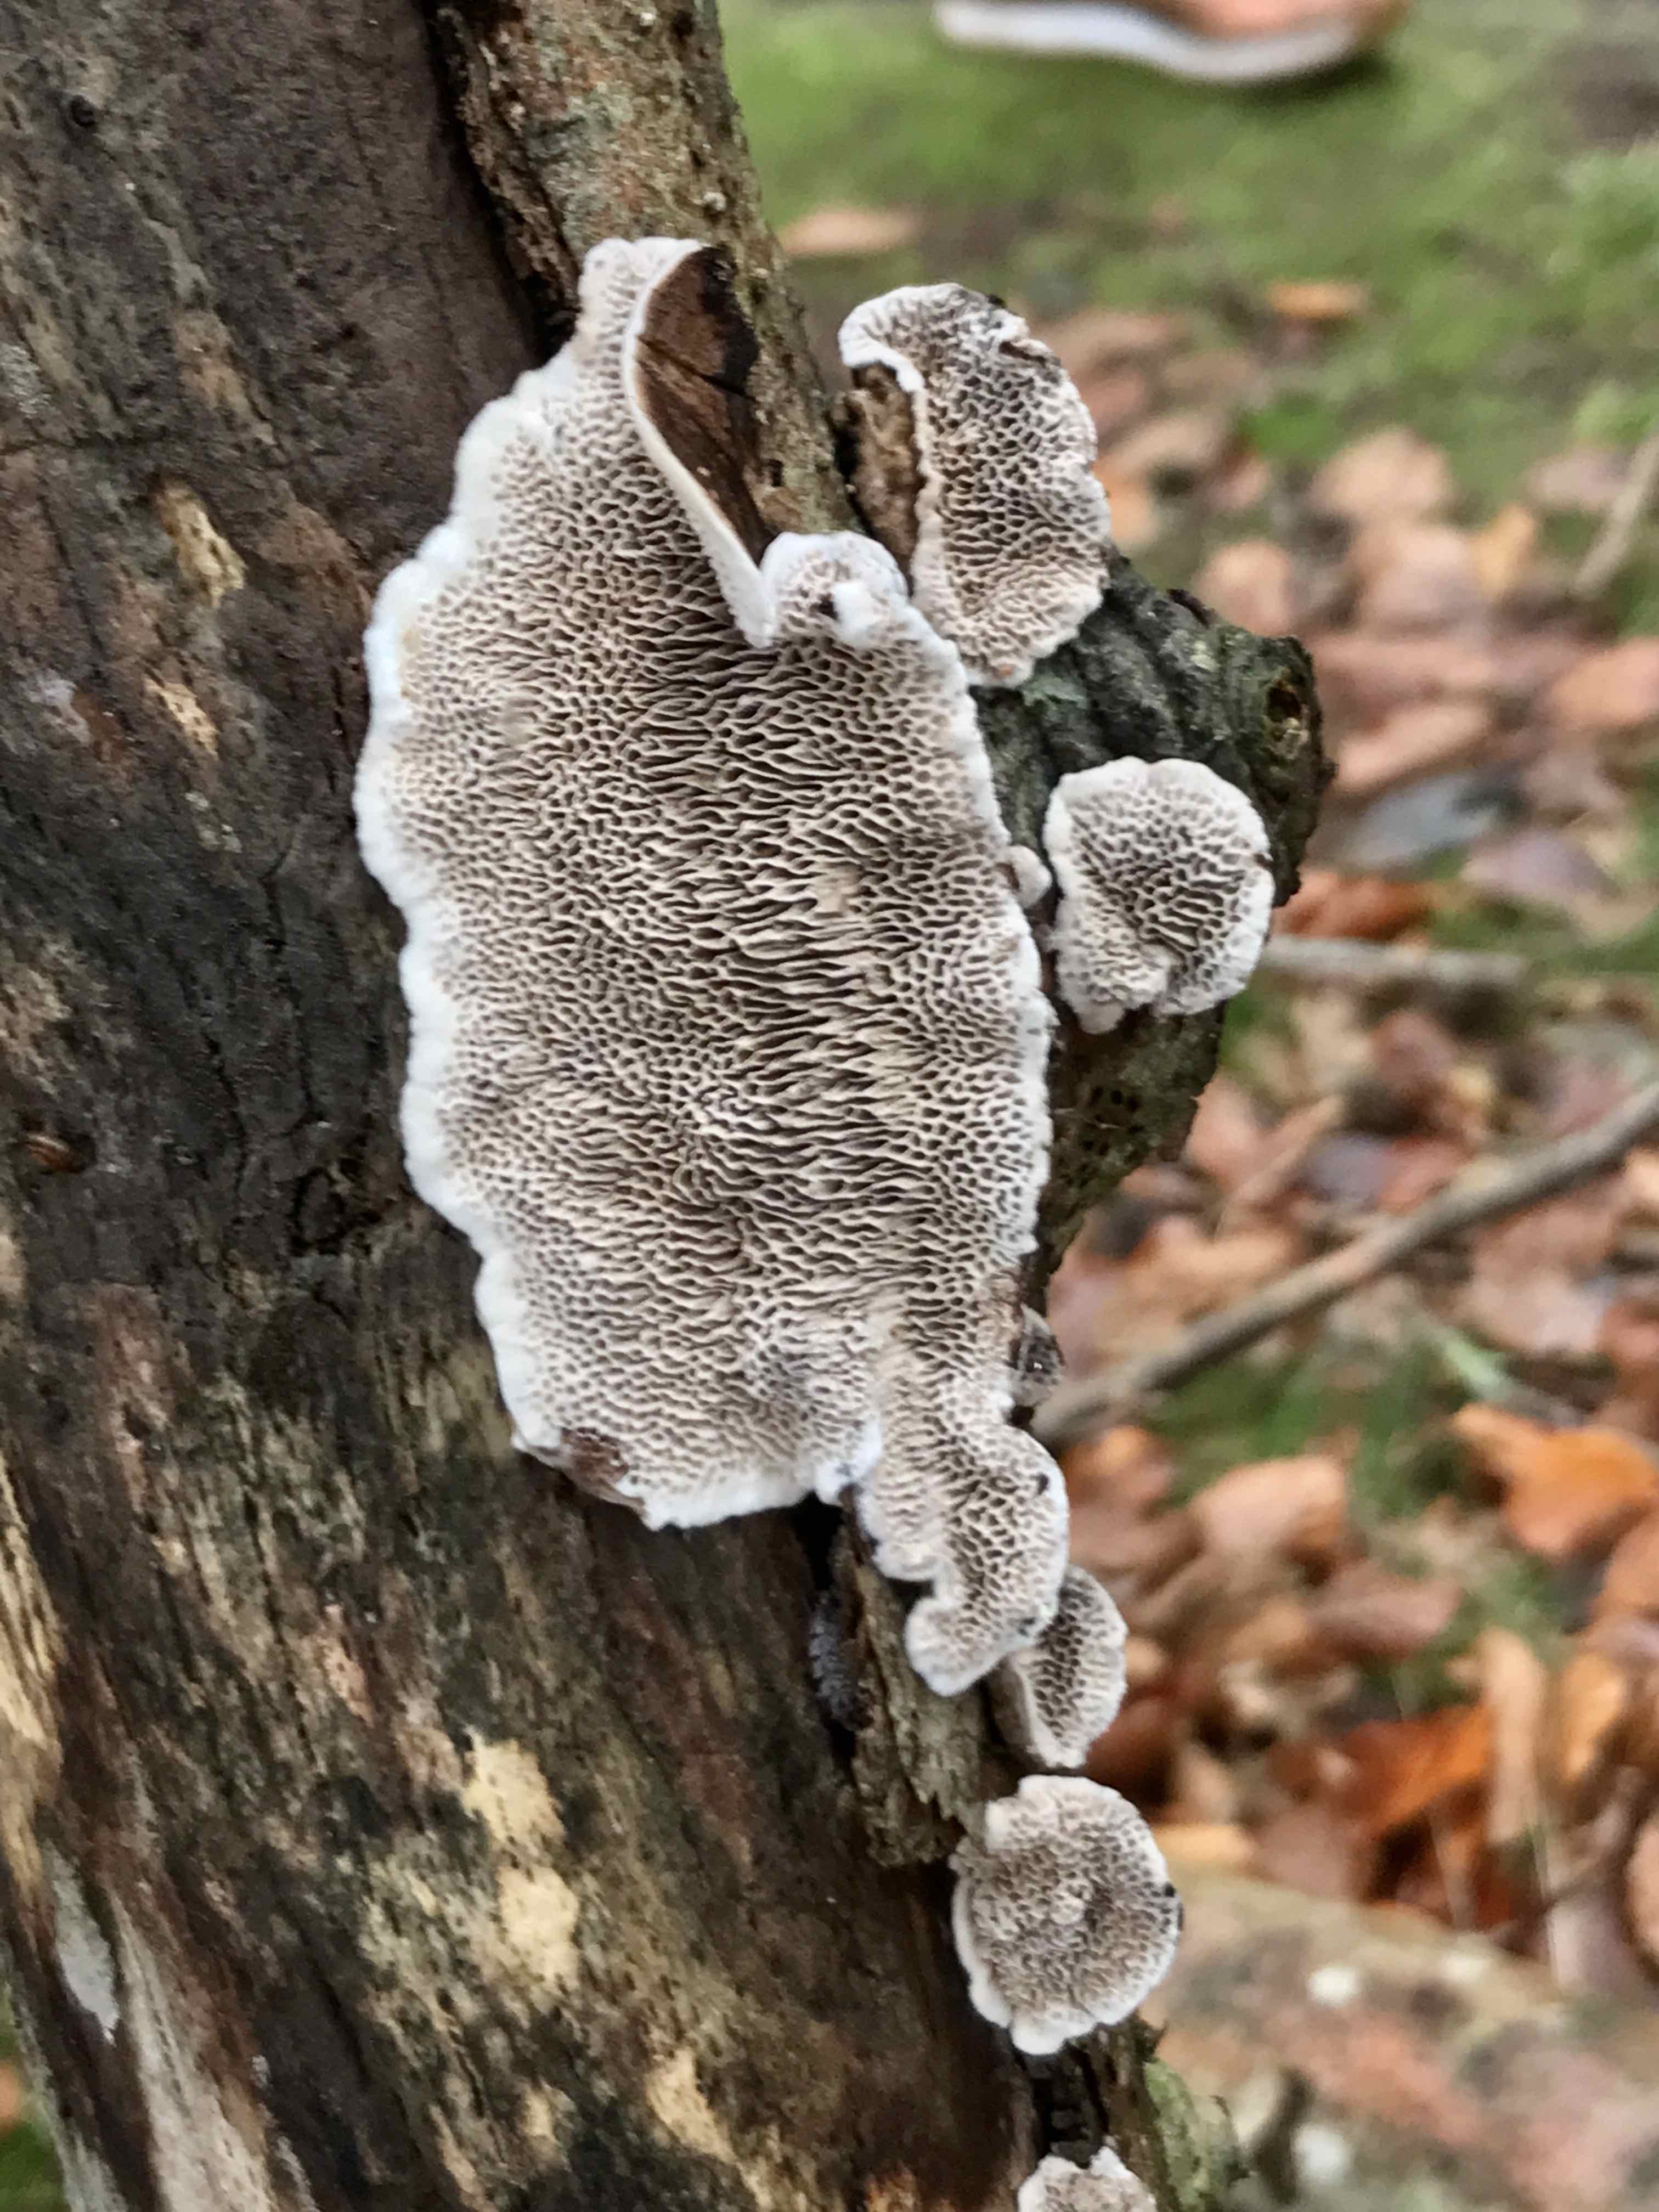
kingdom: Fungi
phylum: Basidiomycota
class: Agaricomycetes
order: Polyporales
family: Polyporaceae
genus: Podofomes
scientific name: Podofomes mollis
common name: blød begporesvamp
